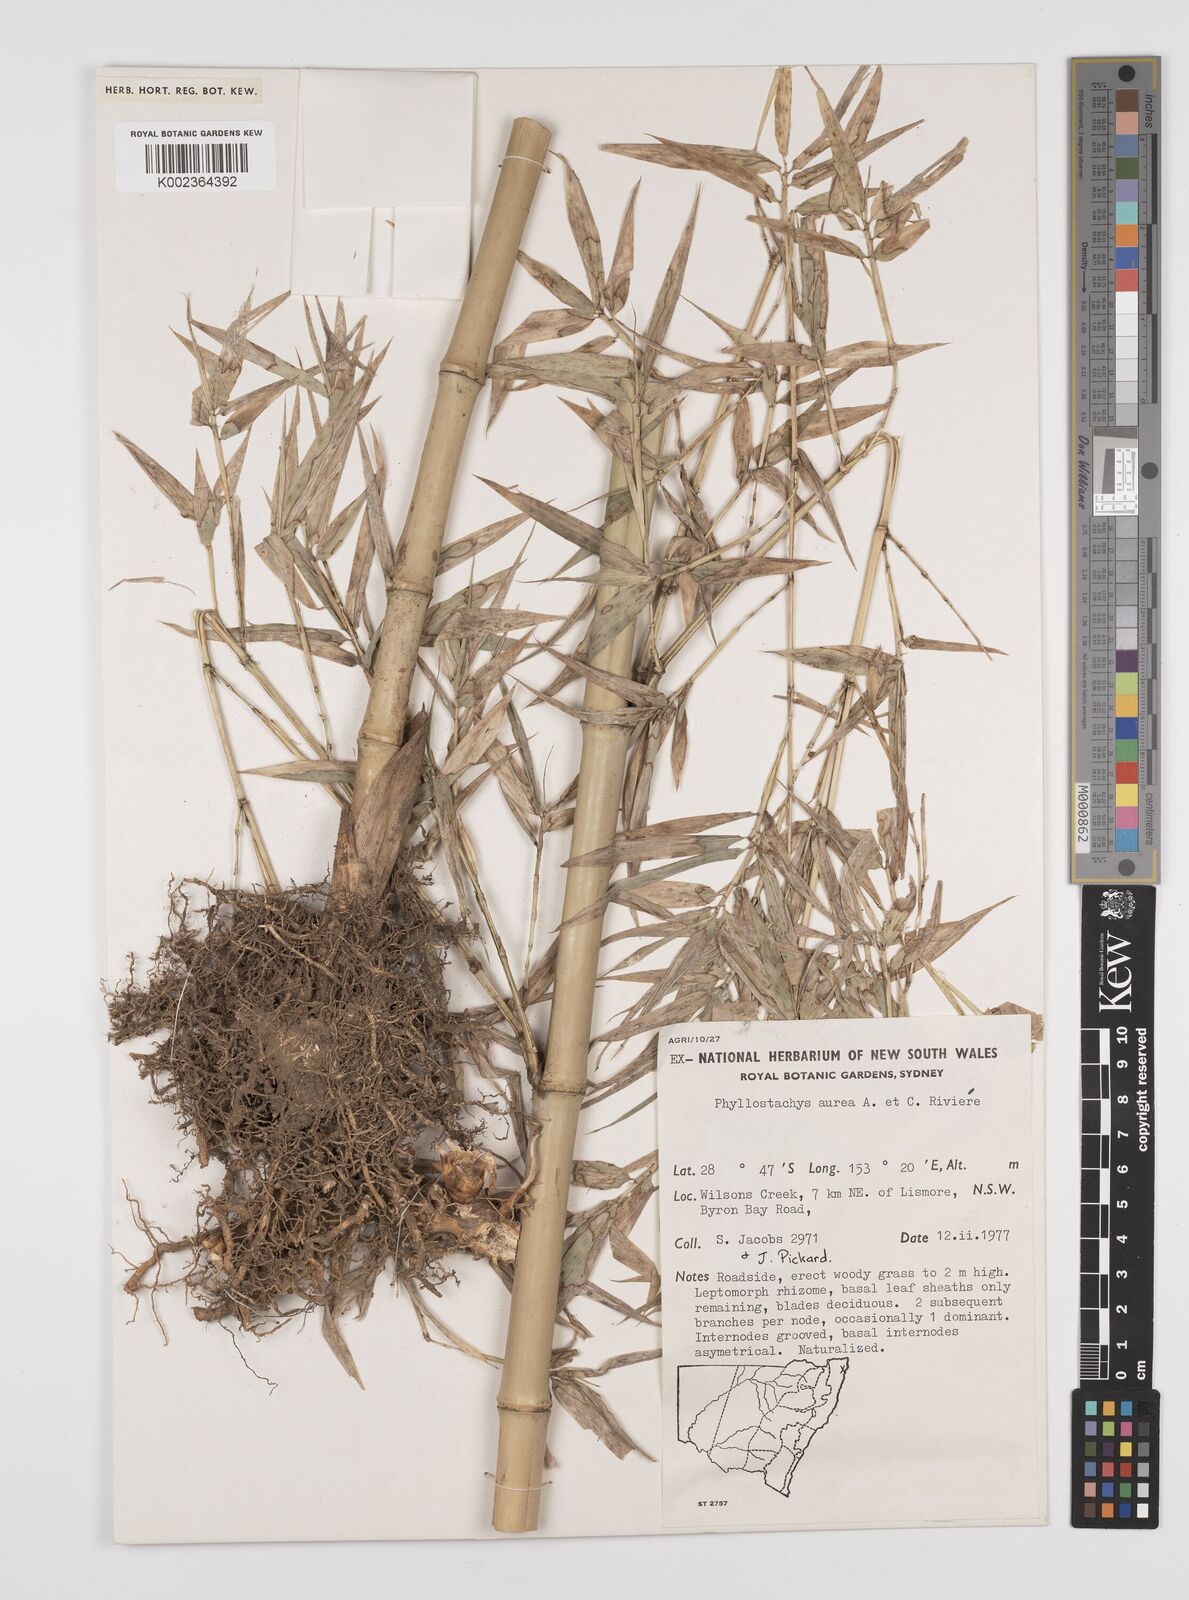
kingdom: Plantae
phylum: Tracheophyta
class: Liliopsida
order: Poales
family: Poaceae
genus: Phyllostachys
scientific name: Phyllostachys aurea
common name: Golden bamboo
